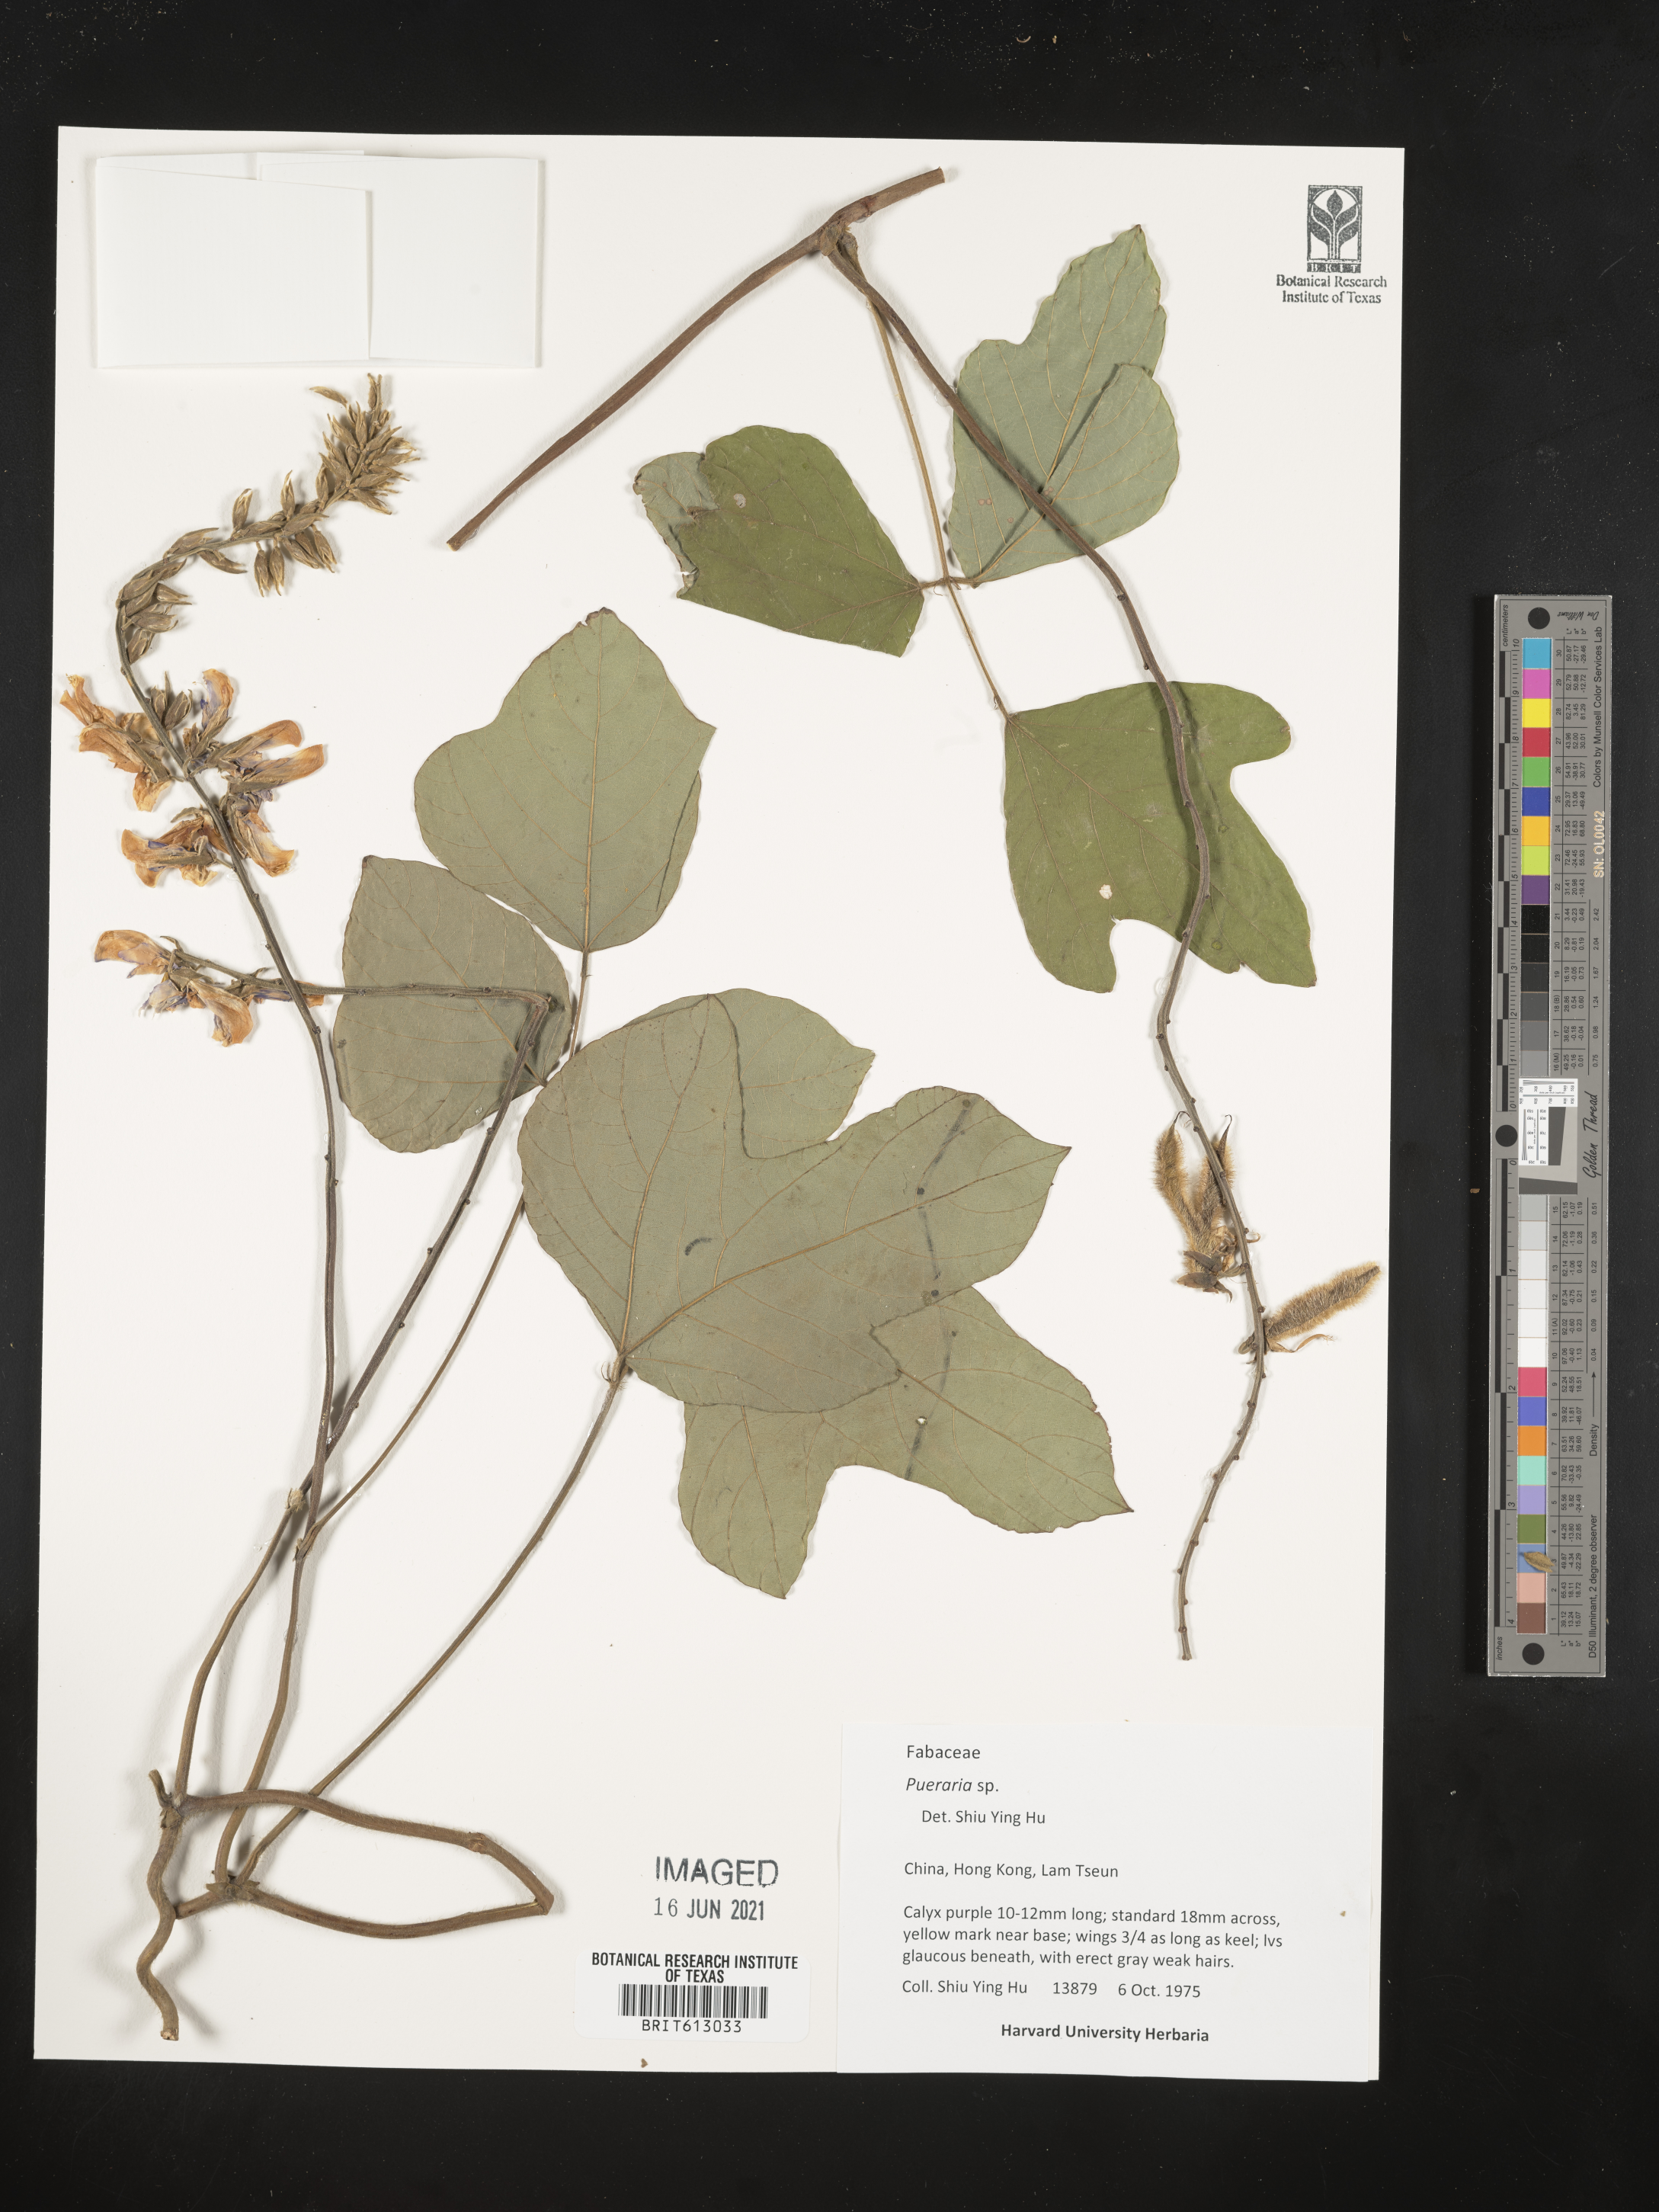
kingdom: Plantae
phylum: Tracheophyta
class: Magnoliopsida
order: Fabales
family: Fabaceae
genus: Pueraria
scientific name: Pueraria
